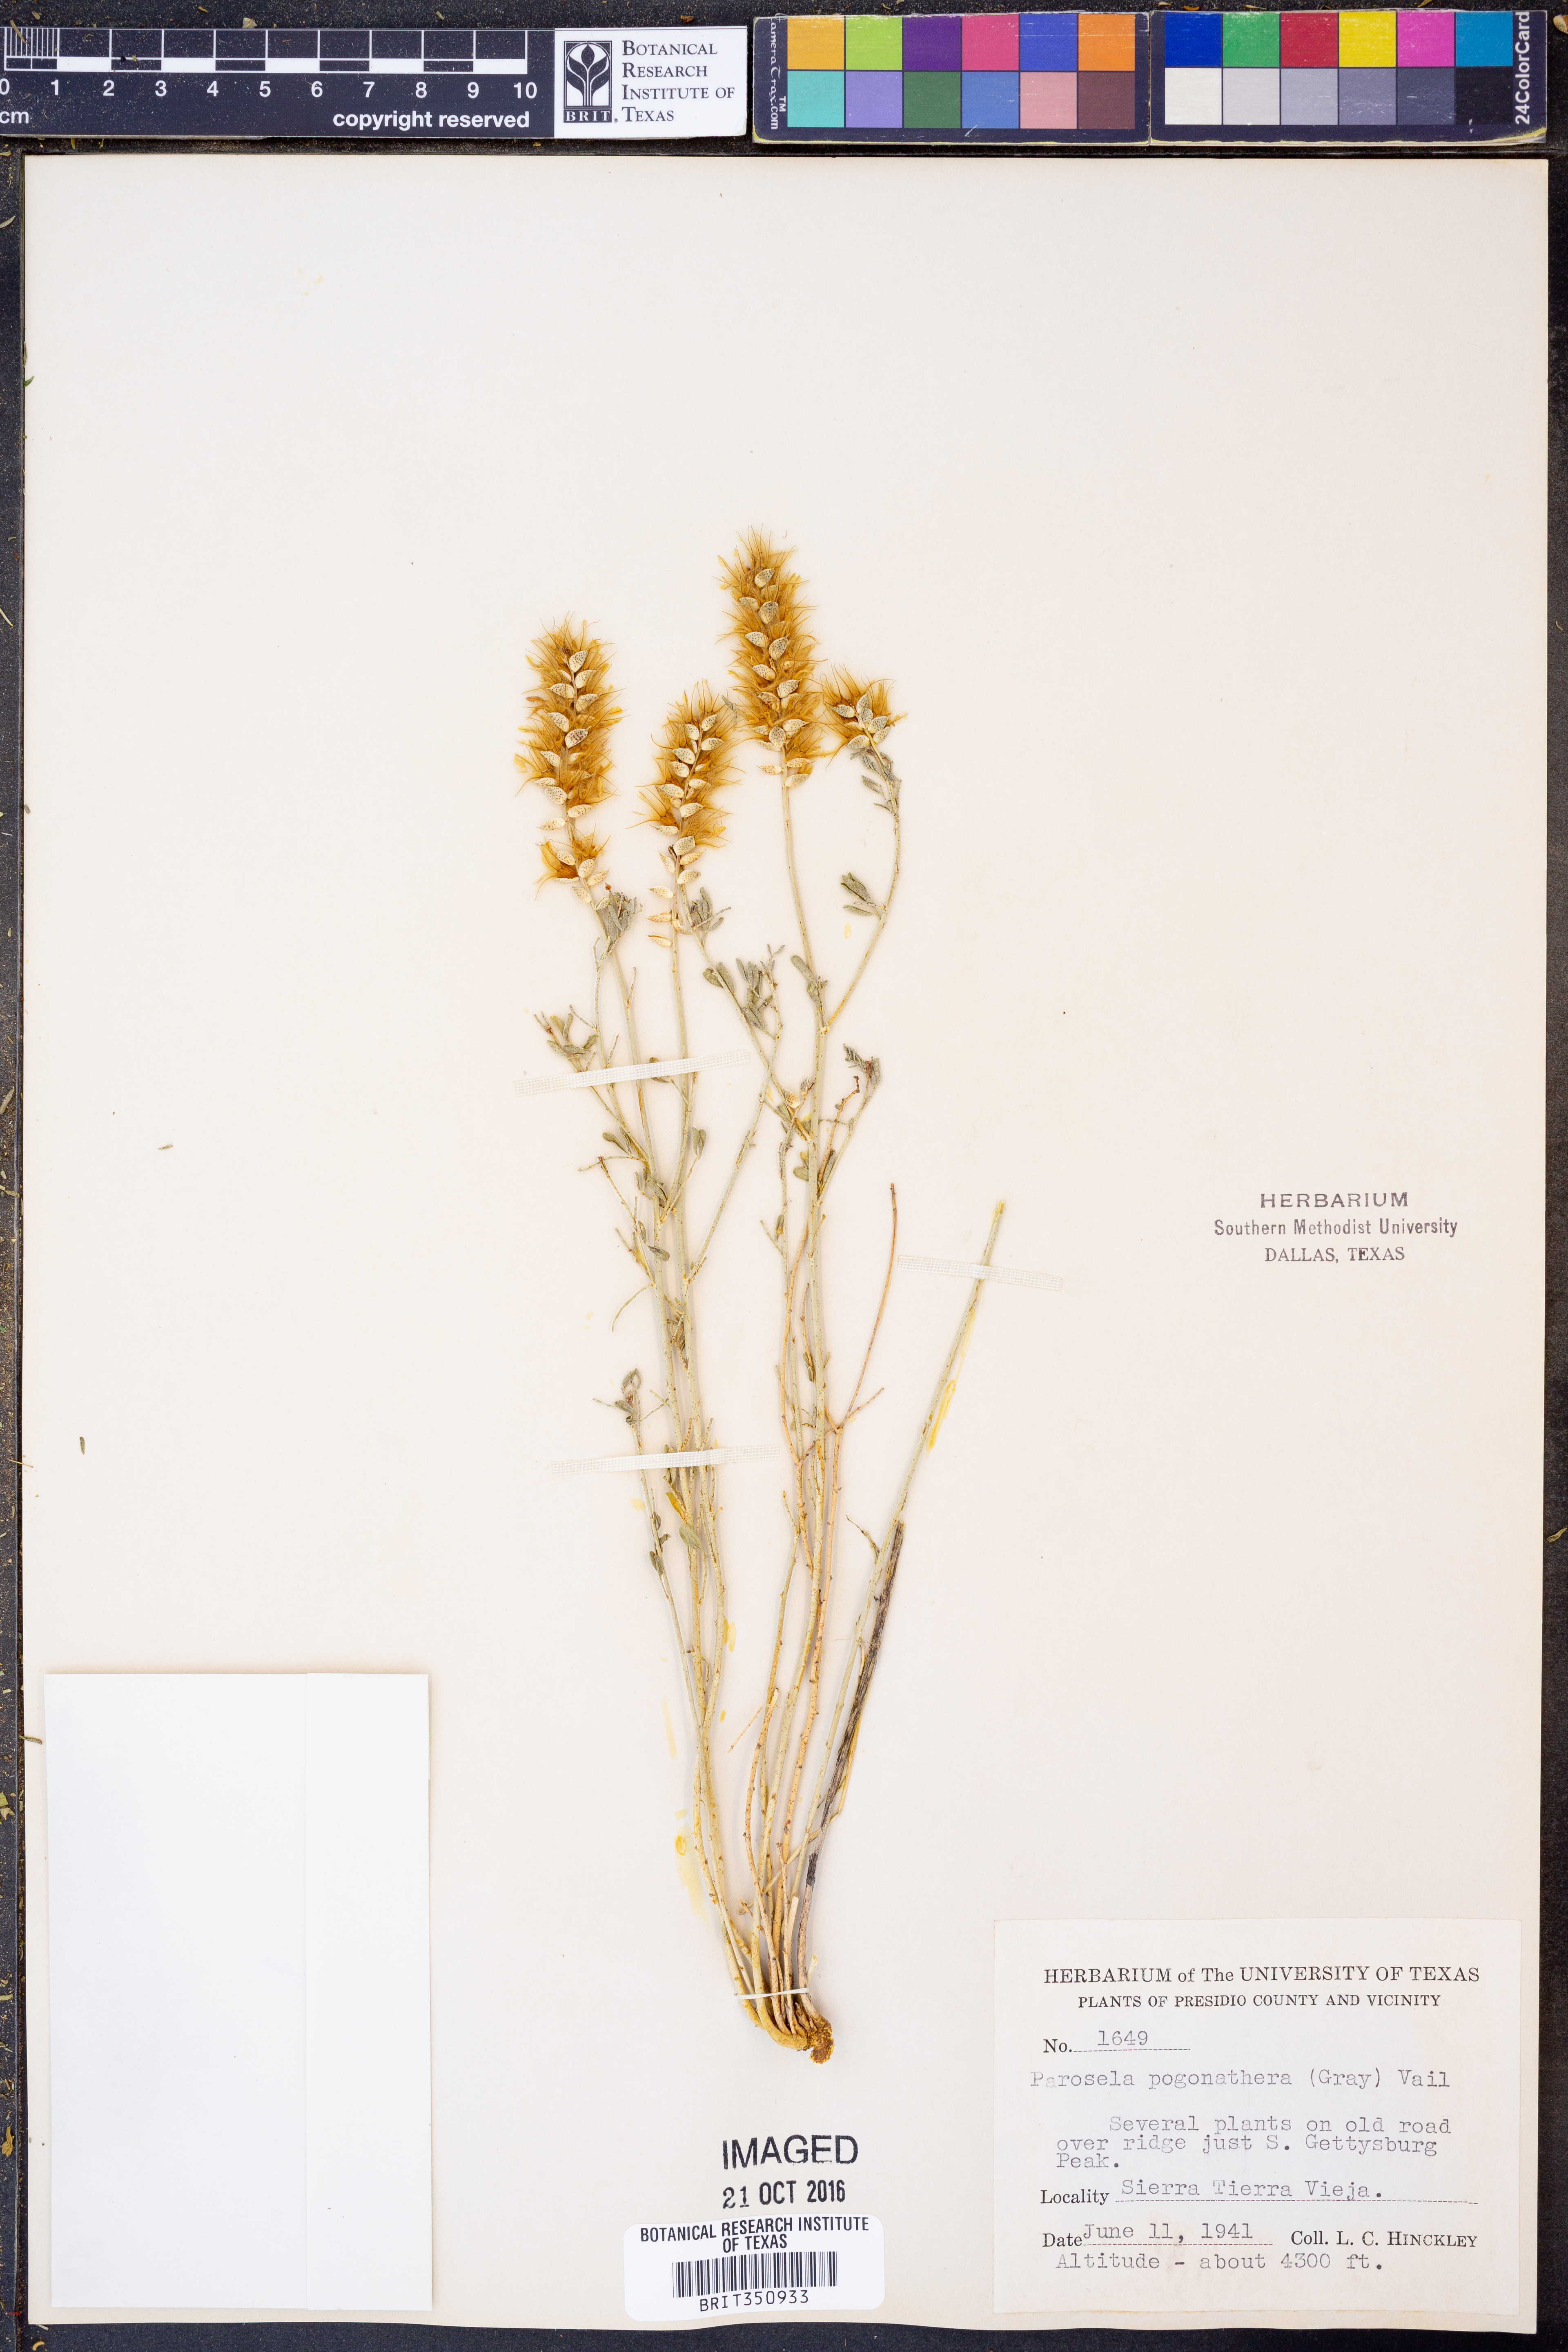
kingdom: Plantae
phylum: Tracheophyta
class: Magnoliopsida
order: Fabales
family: Fabaceae
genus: Dalea
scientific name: Dalea pogonathera
